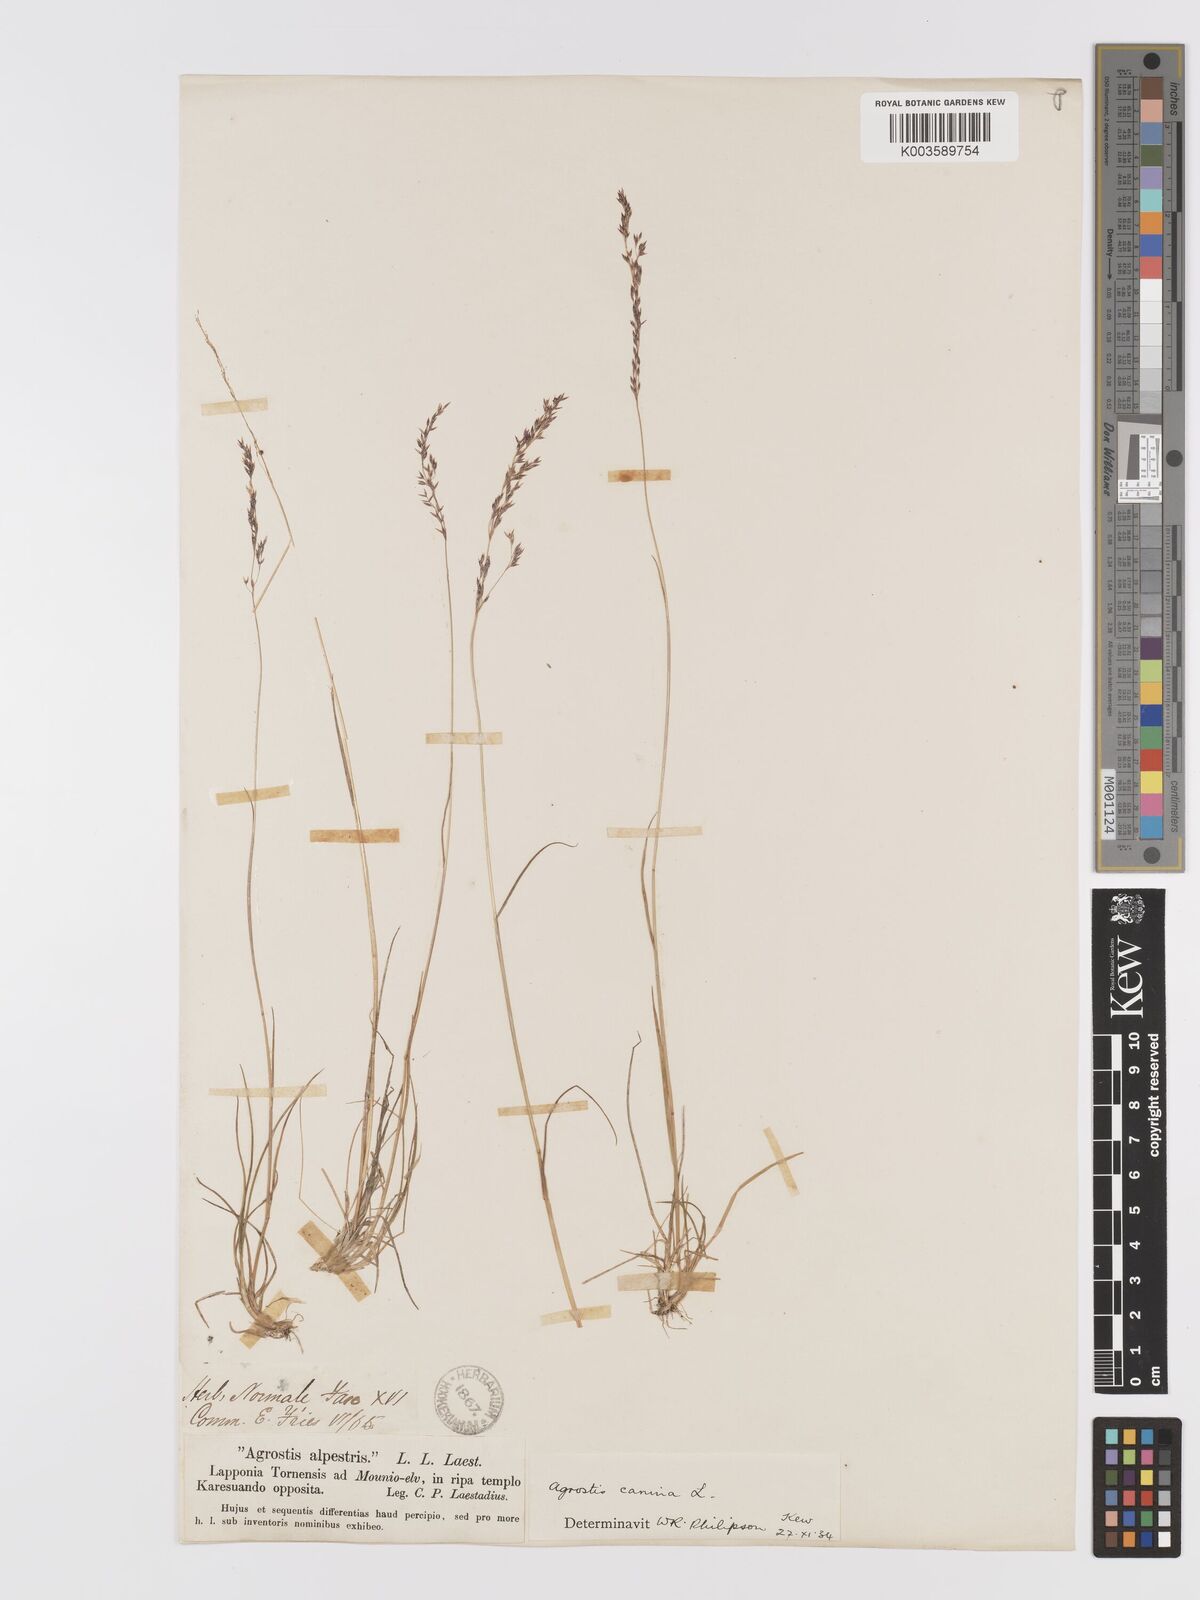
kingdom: Plantae
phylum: Tracheophyta
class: Liliopsida
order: Poales
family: Poaceae
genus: Agrostis
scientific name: Agrostis
